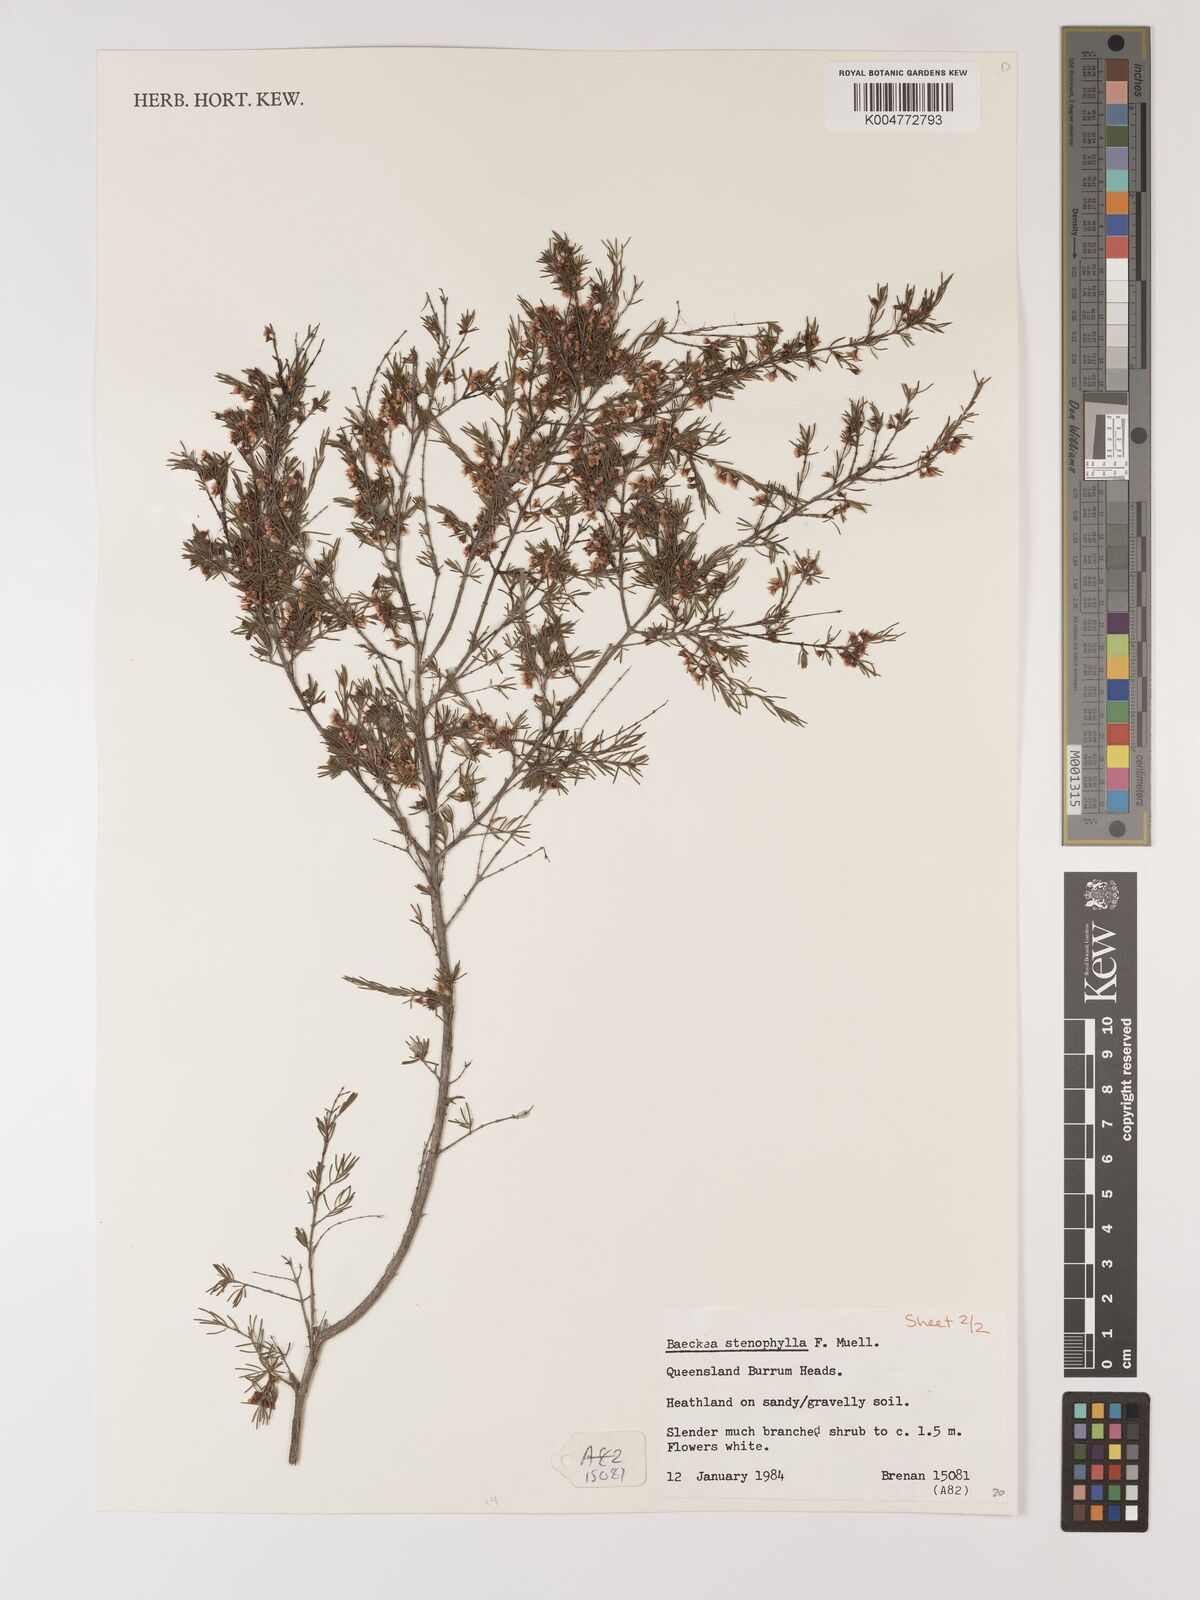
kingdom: Plantae
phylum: Tracheophyta
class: Magnoliopsida
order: Myrtales
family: Myrtaceae
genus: Baeckea
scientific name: Baeckea frutescens
